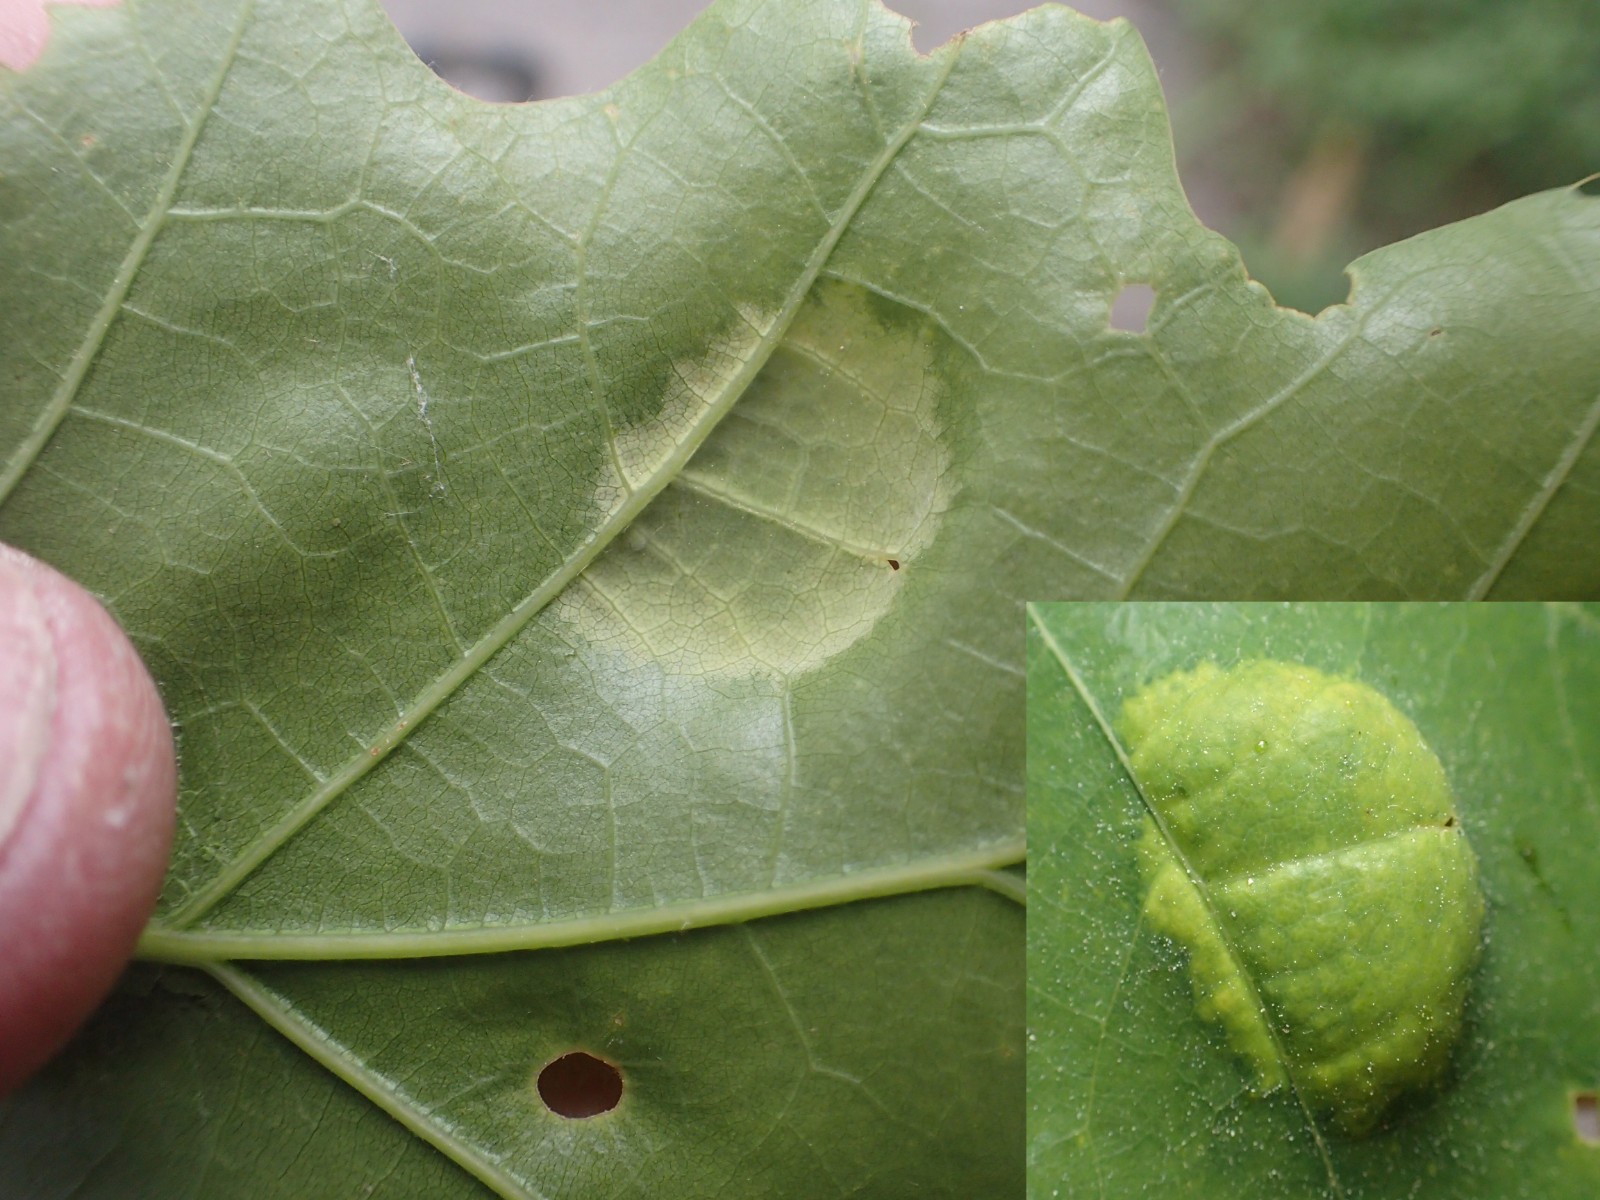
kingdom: Fungi
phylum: Ascomycota
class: Taphrinomycetes
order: Taphrinales
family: Taphrinaceae
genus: Taphrina
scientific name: Taphrina caerulescens
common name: Oak leaf blister
